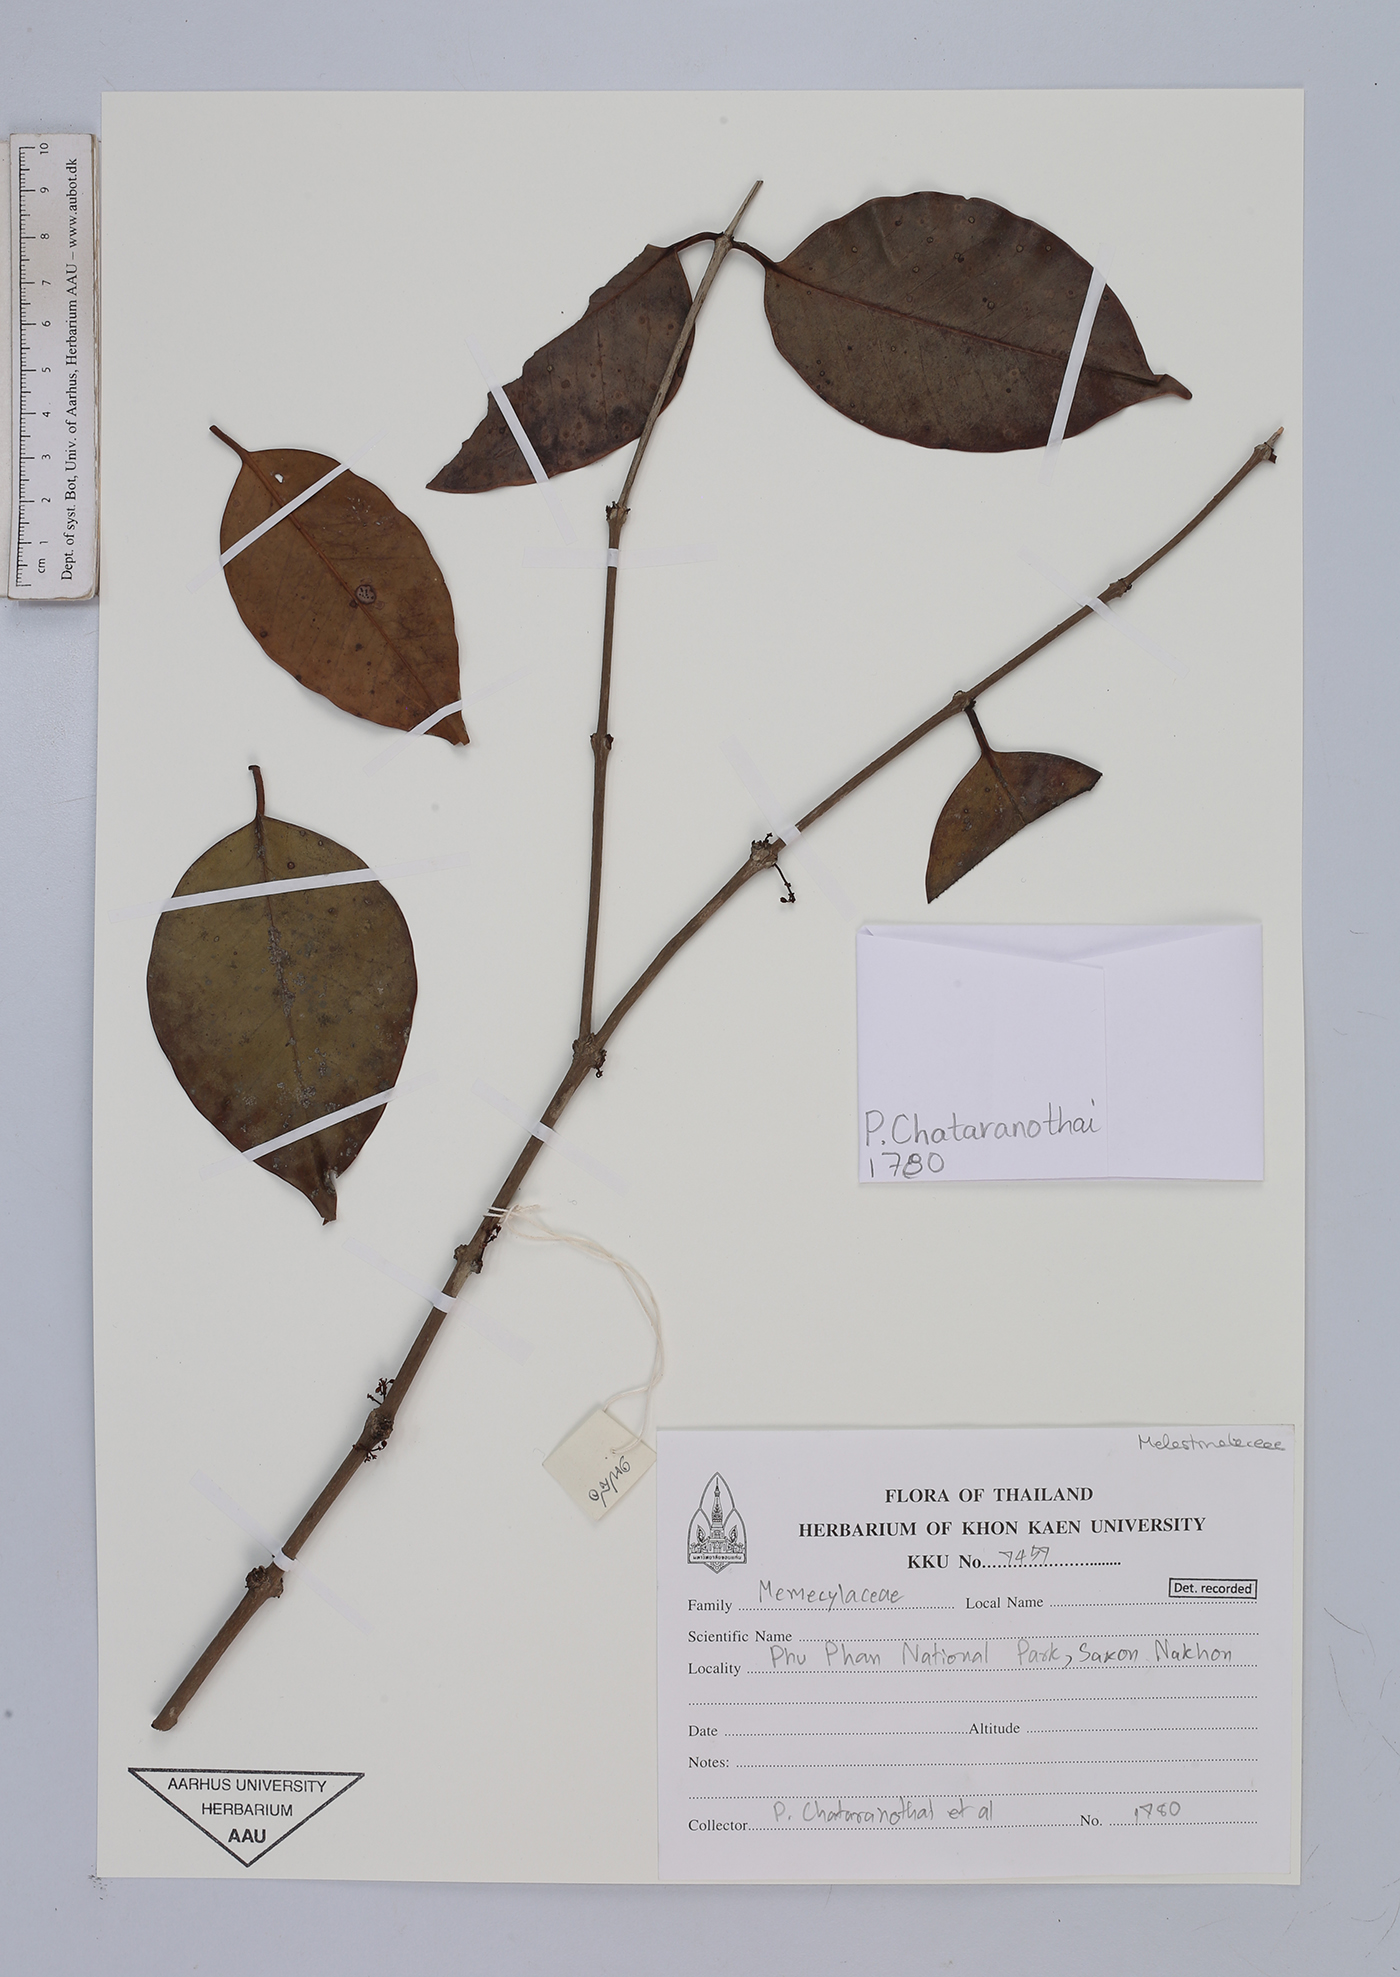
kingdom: Plantae
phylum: Tracheophyta
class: Magnoliopsida
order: Myrtales
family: Melastomataceae
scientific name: Melastomataceae
